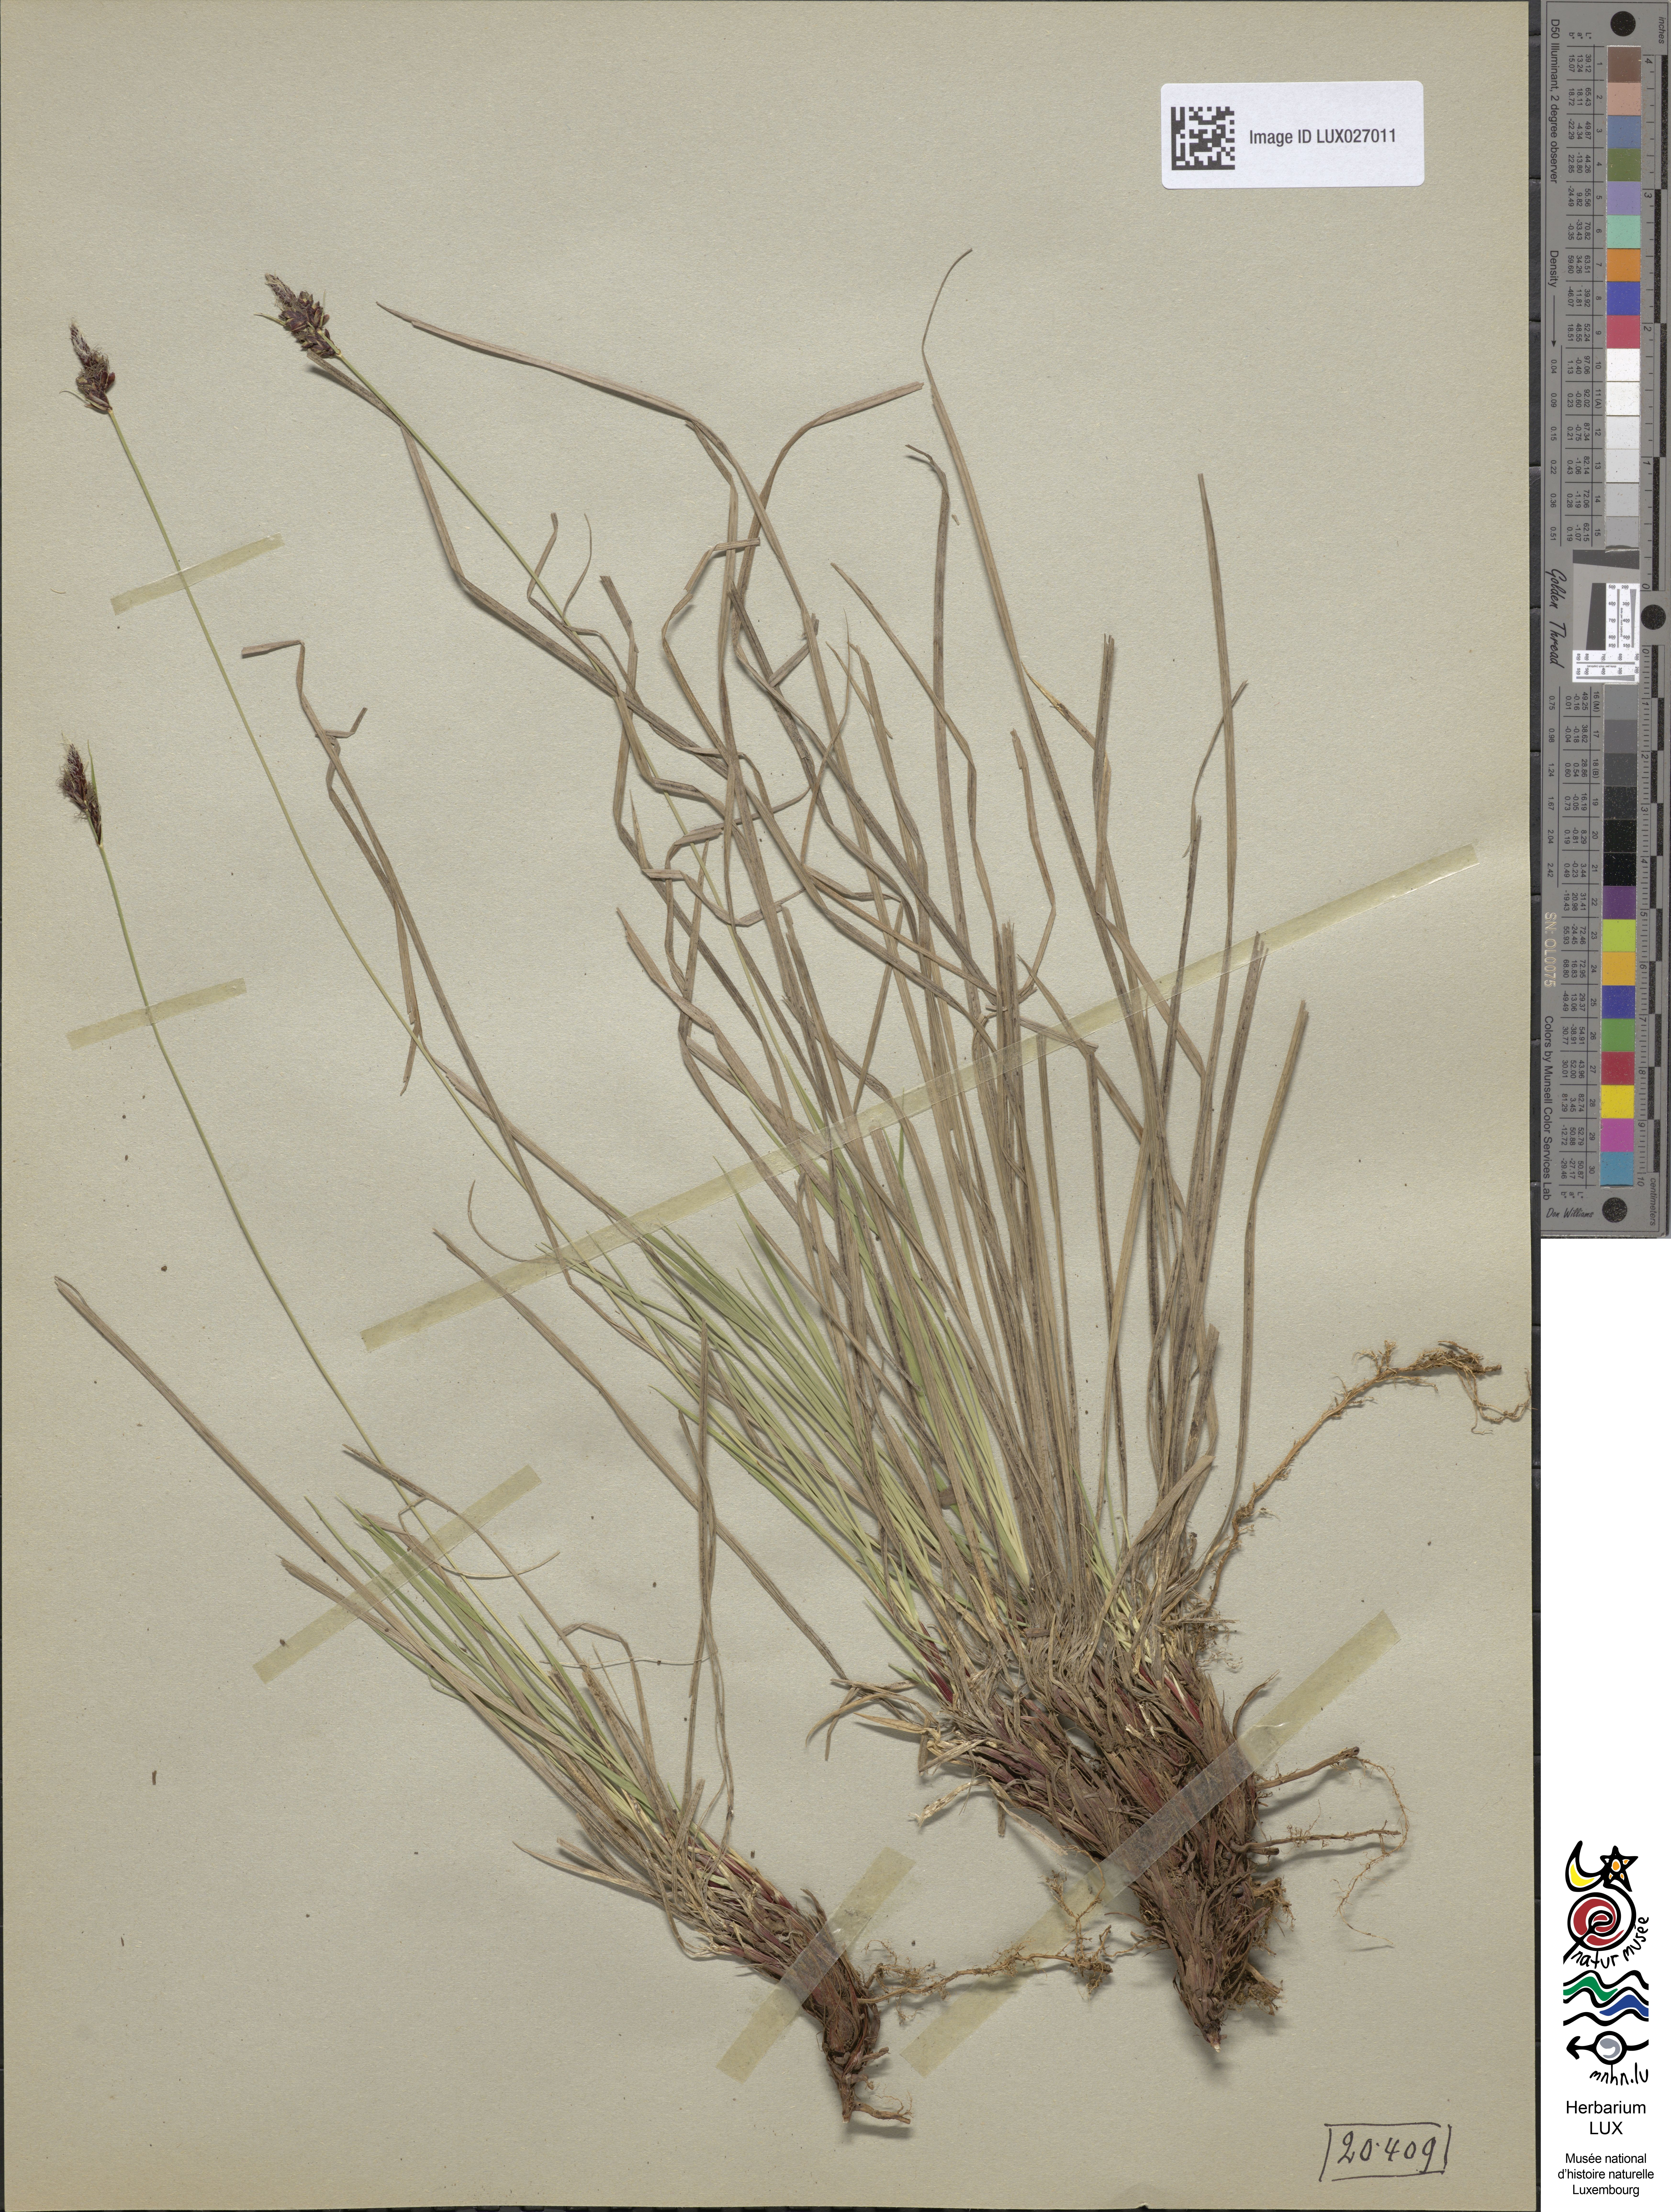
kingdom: Plantae
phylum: Tracheophyta
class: Liliopsida
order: Poales
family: Cyperaceae
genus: Carex
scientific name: Carex montana
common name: Soft-leaved sedge
